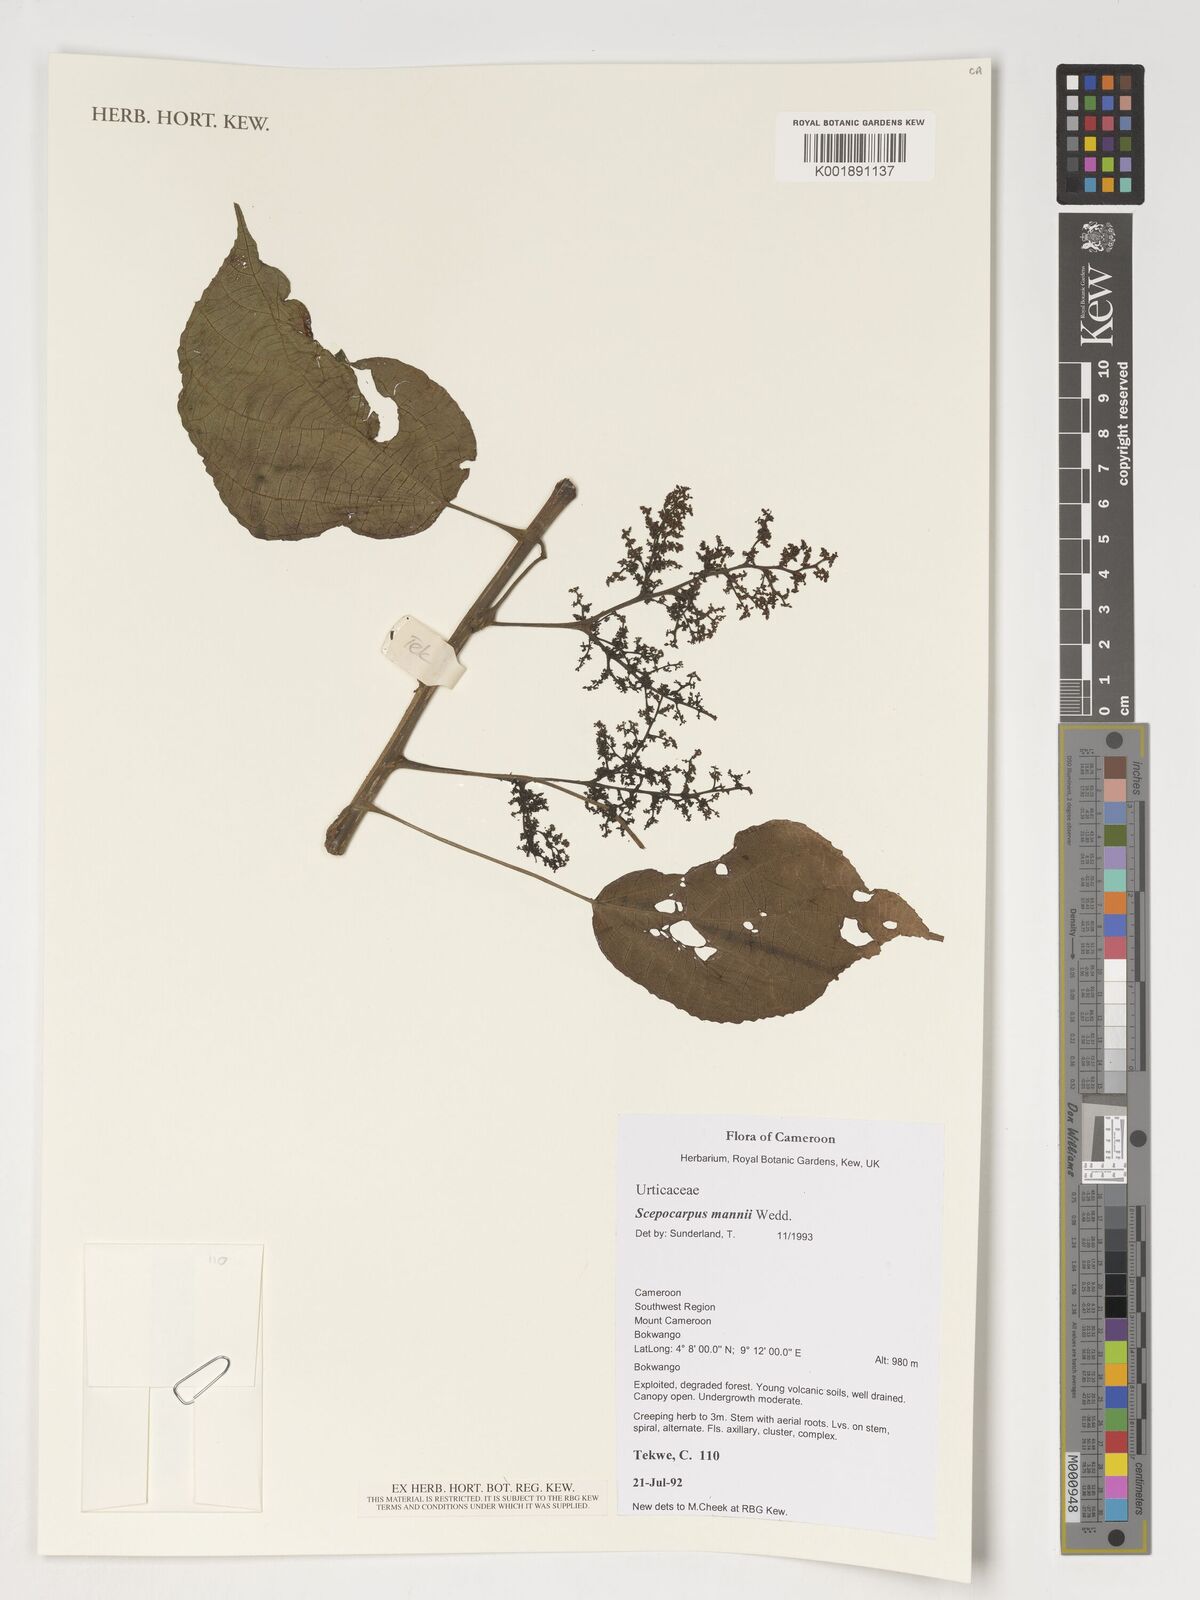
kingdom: Plantae
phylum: Tracheophyta
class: Magnoliopsida
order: Rosales
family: Urticaceae
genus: Scepocarpus
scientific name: Scepocarpus mannii
